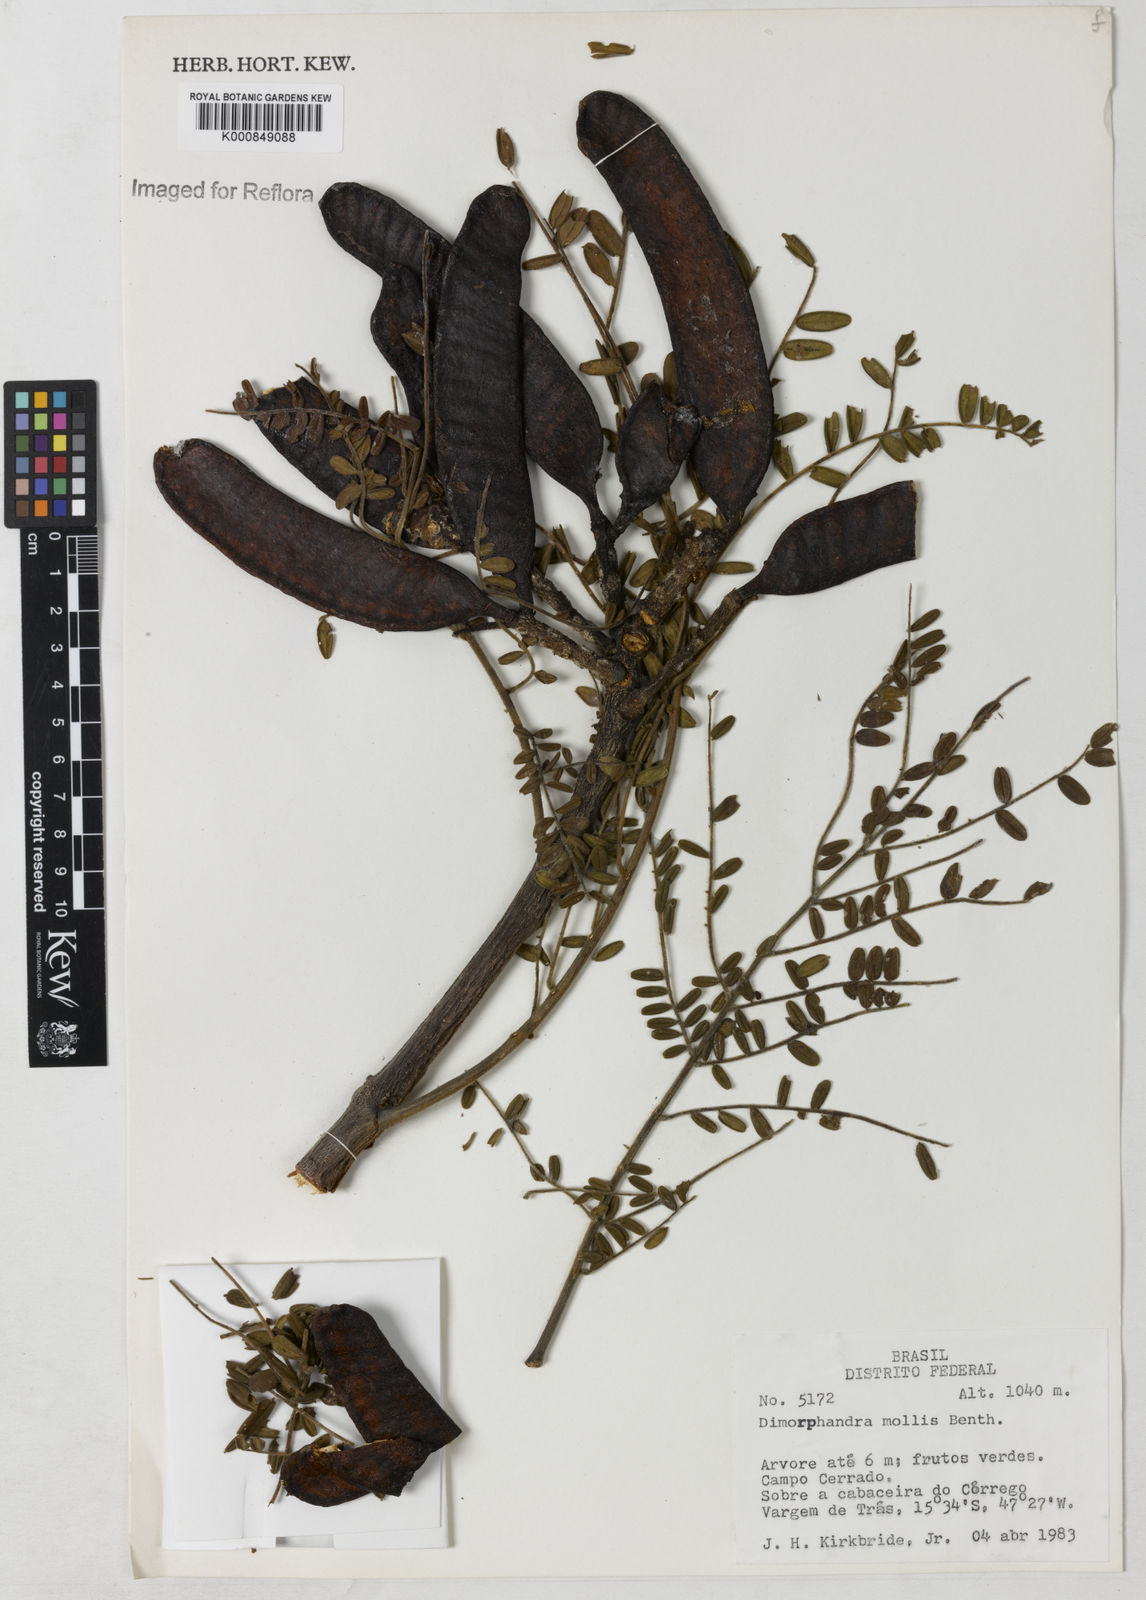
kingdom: Plantae
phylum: Tracheophyta
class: Magnoliopsida
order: Fabales
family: Fabaceae
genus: Dimorphandra
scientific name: Dimorphandra mollis
